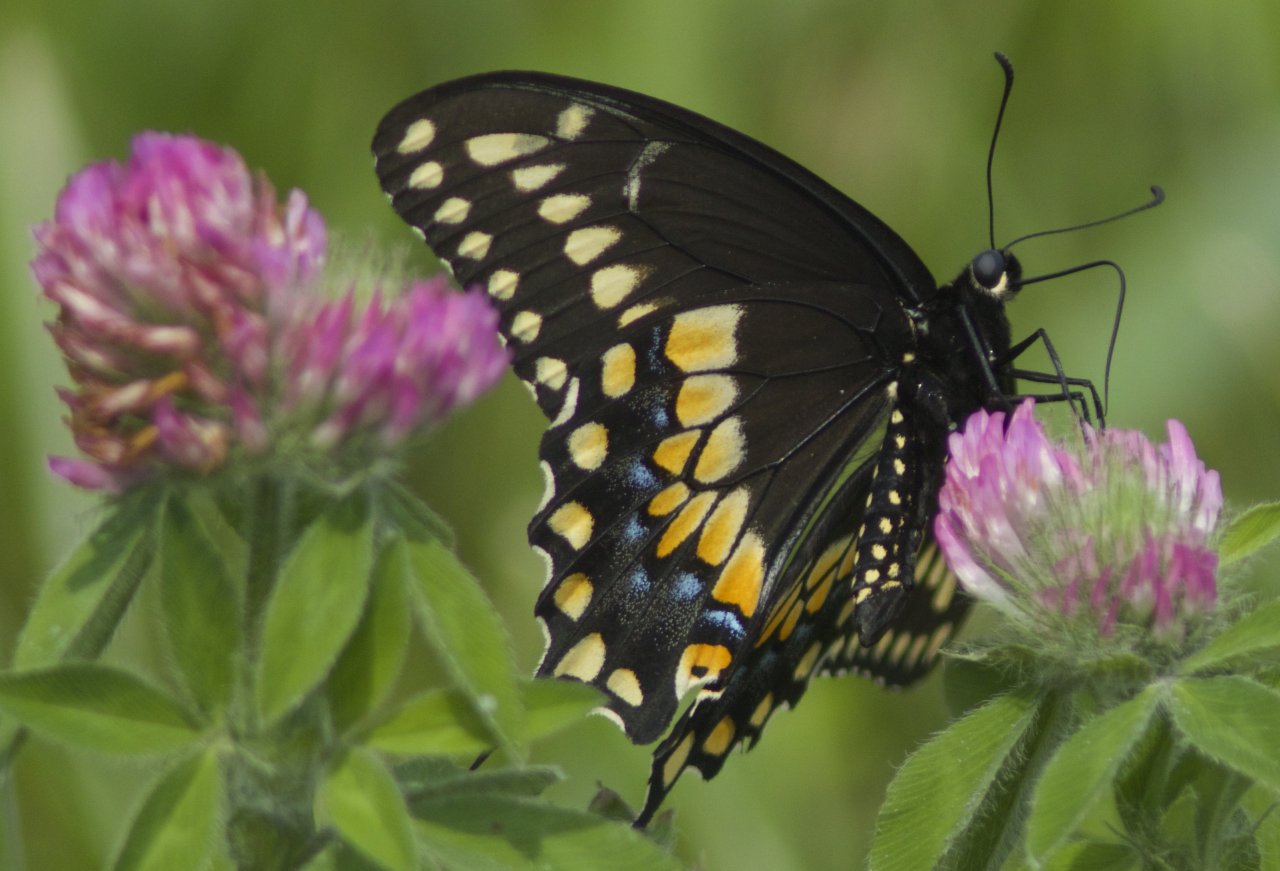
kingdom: Animalia
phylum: Arthropoda
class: Insecta
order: Lepidoptera
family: Papilionidae
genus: Papilio
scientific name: Papilio polyxenes
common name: Black Swallowtail
